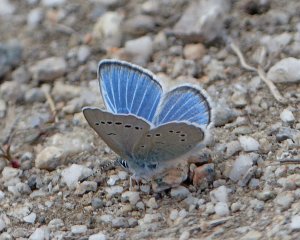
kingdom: Animalia
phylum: Arthropoda
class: Insecta
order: Lepidoptera
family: Lycaenidae
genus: Glaucopsyche
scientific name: Glaucopsyche lygdamus
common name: Silvery Blue
